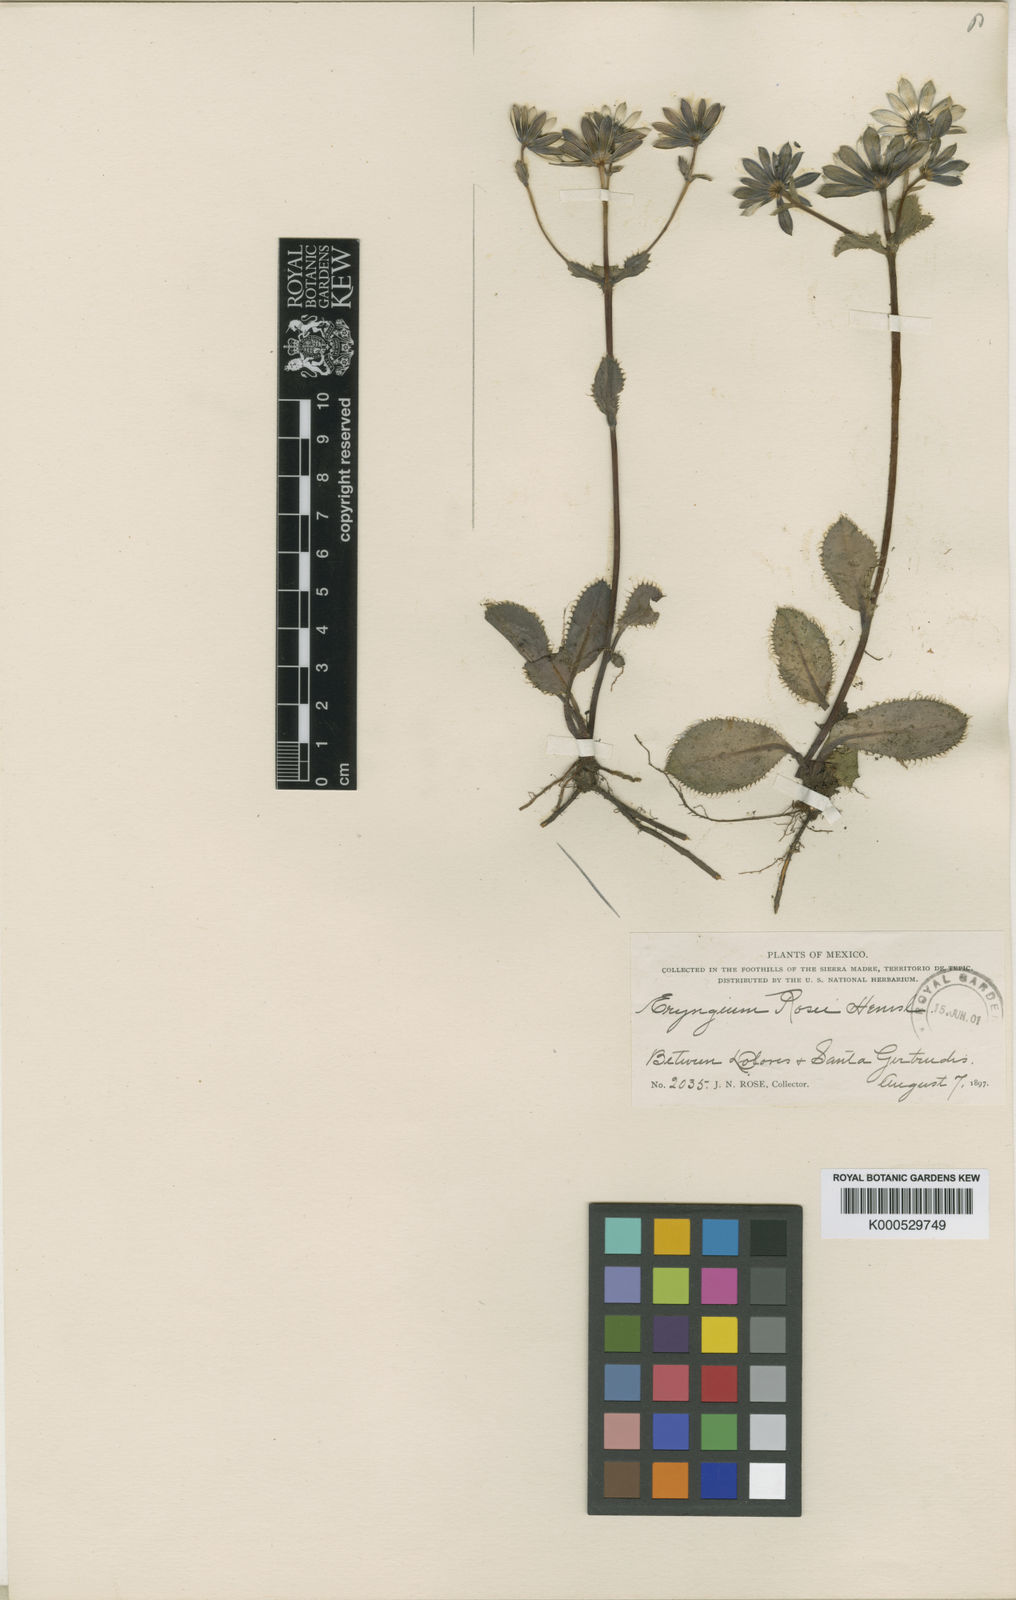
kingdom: Plantae
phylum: Tracheophyta
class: Magnoliopsida
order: Apiales
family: Apiaceae
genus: Eryngium
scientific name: Eryngium rosei
